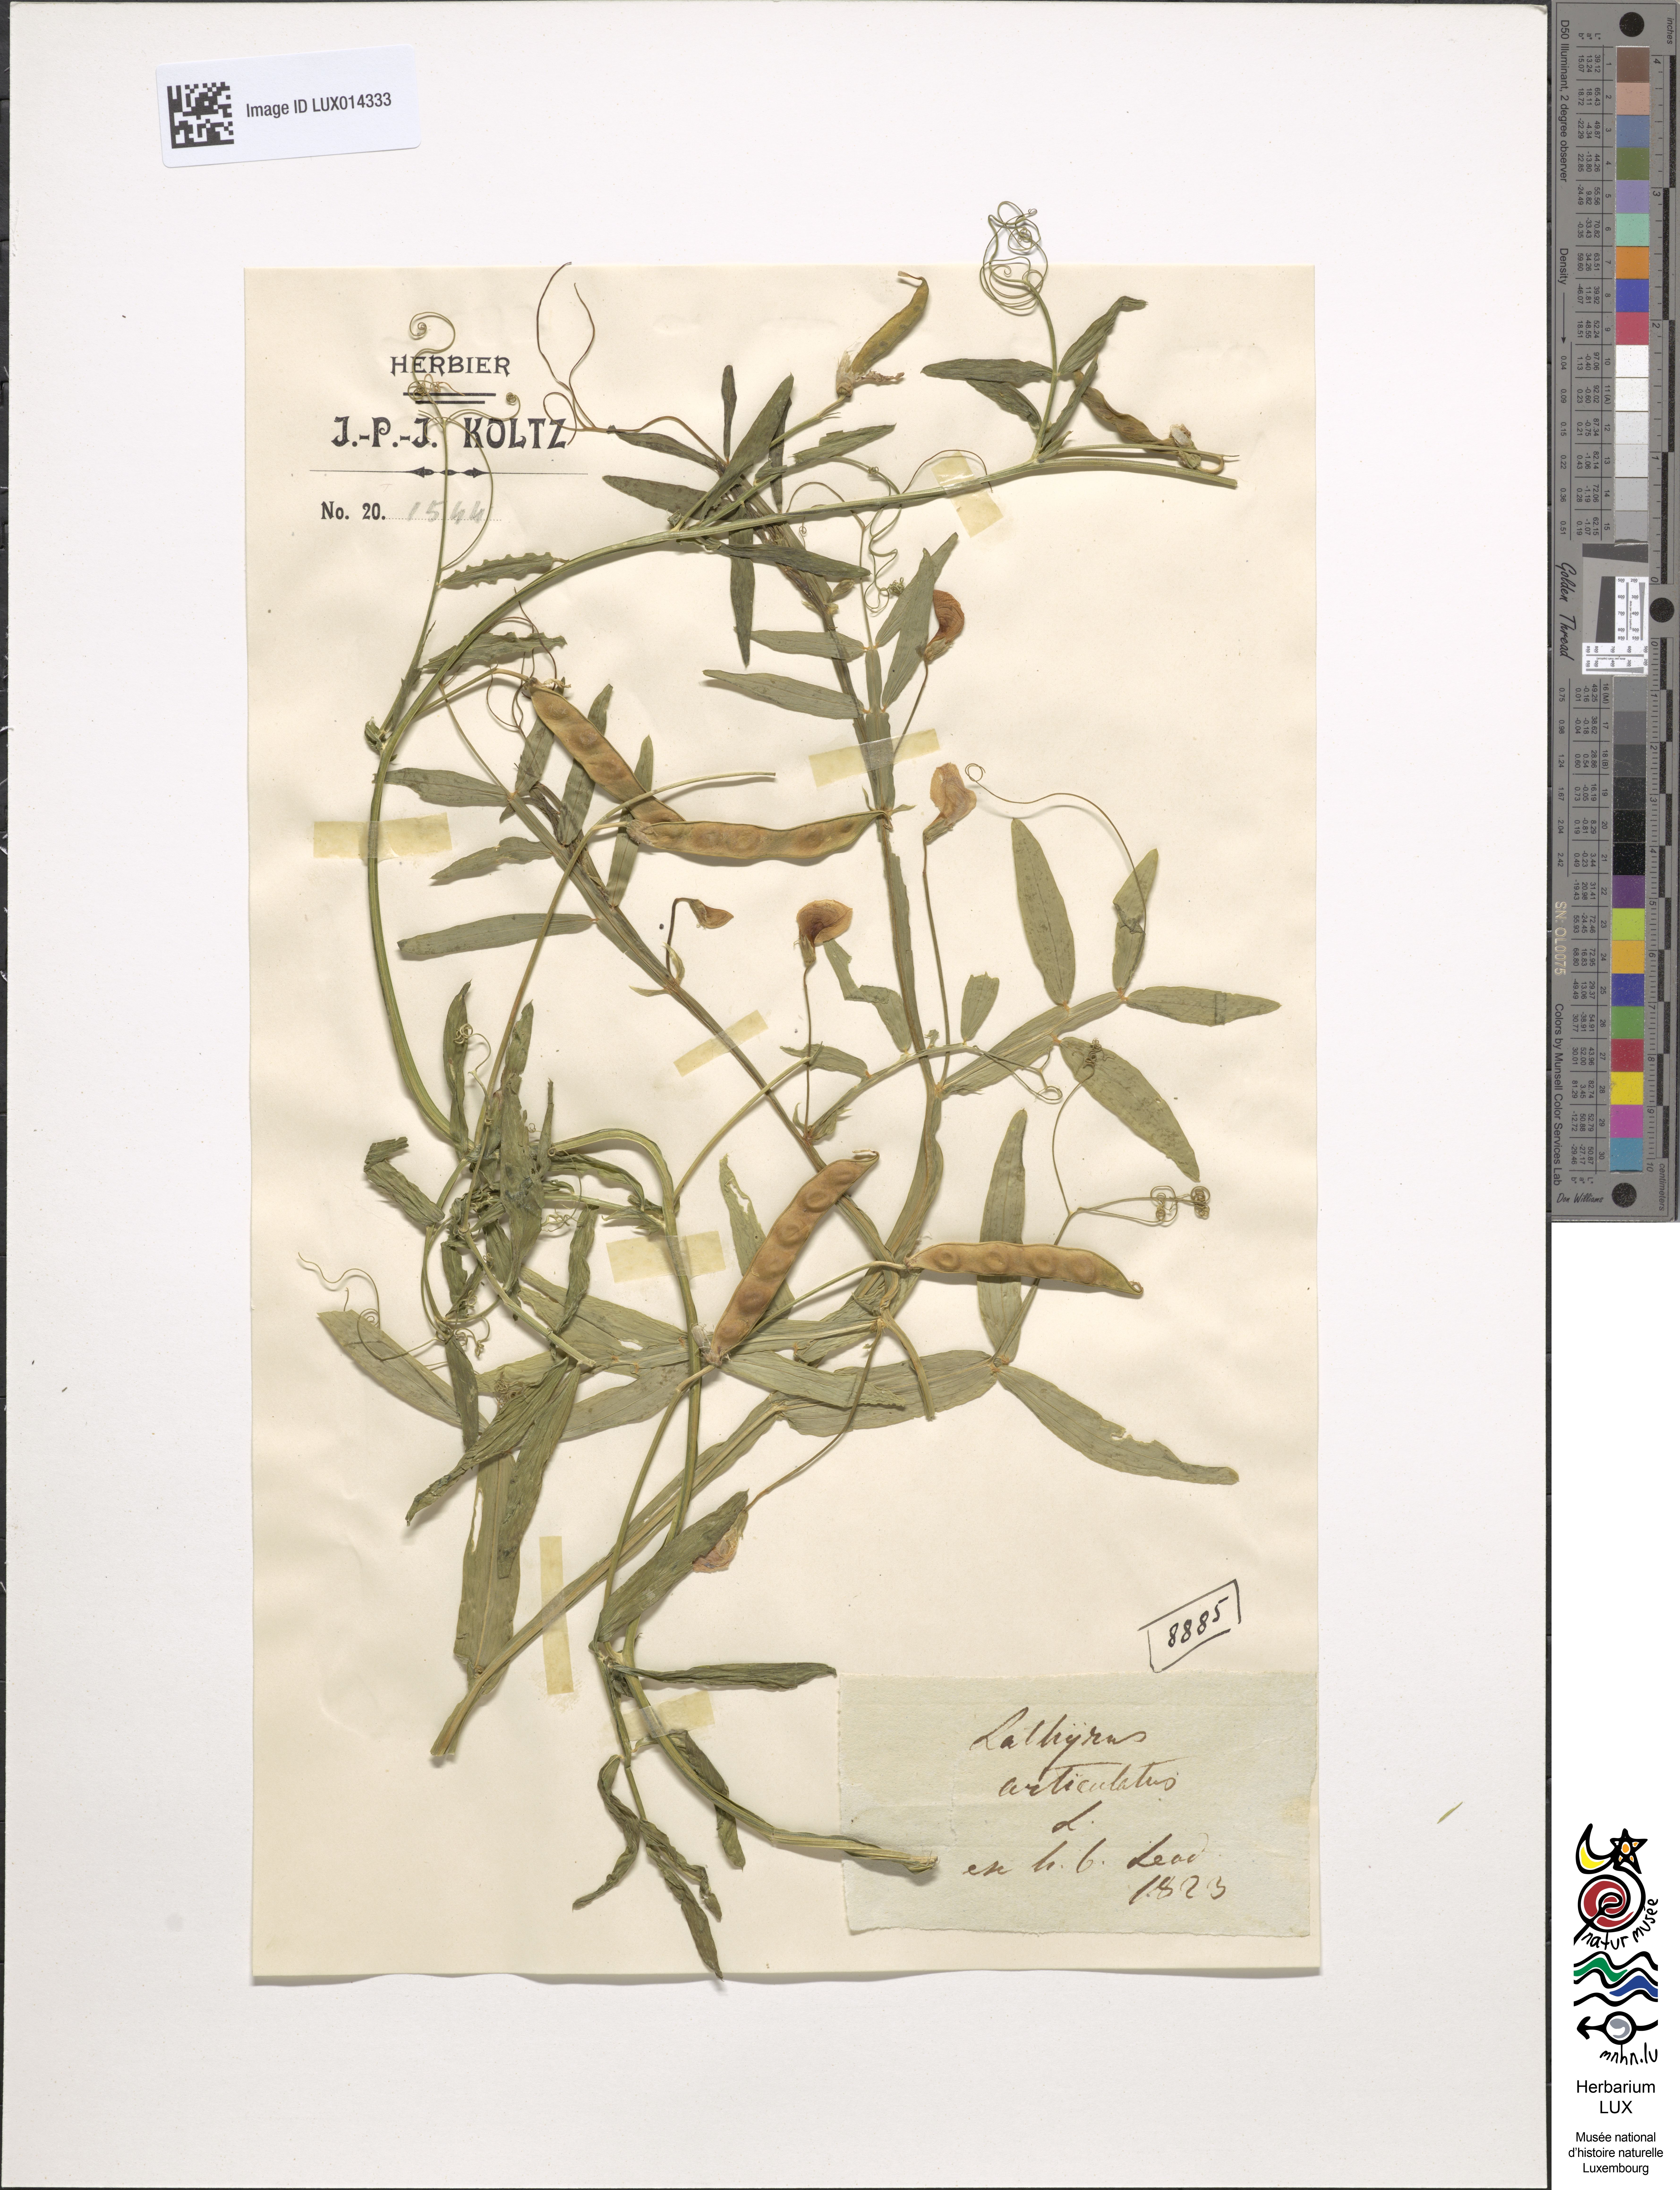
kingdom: Plantae
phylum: Tracheophyta
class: Magnoliopsida
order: Fabales
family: Fabaceae
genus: Lathyrus
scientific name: Lathyrus articulatus
